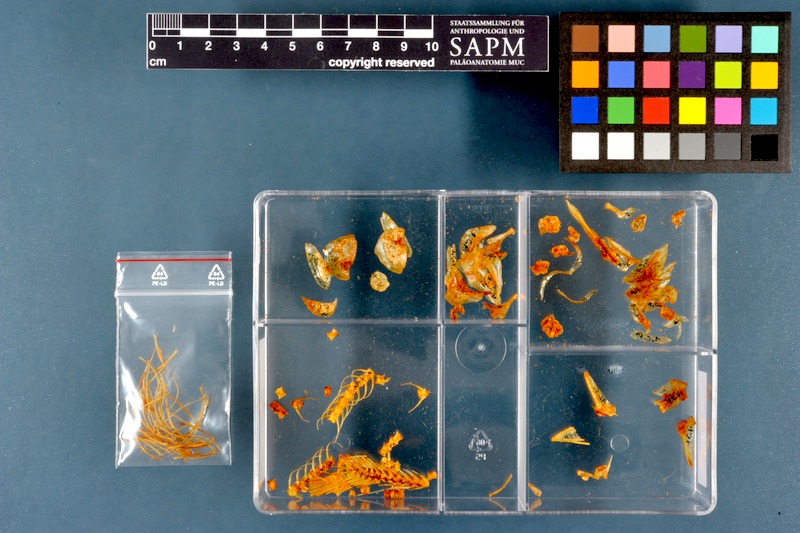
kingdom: Animalia
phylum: Chordata
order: Salmoniformes
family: Salmonidae
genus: Coregonus
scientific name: Coregonus pidschian
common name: Bottom whitefish
